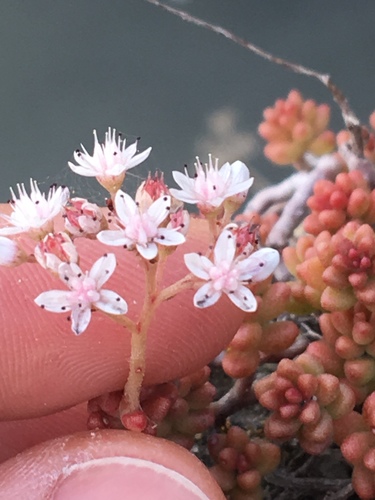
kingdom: Plantae
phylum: Tracheophyta
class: Magnoliopsida
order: Saxifragales
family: Crassulaceae
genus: Sedum
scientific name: Sedum album
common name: White stonecrop
